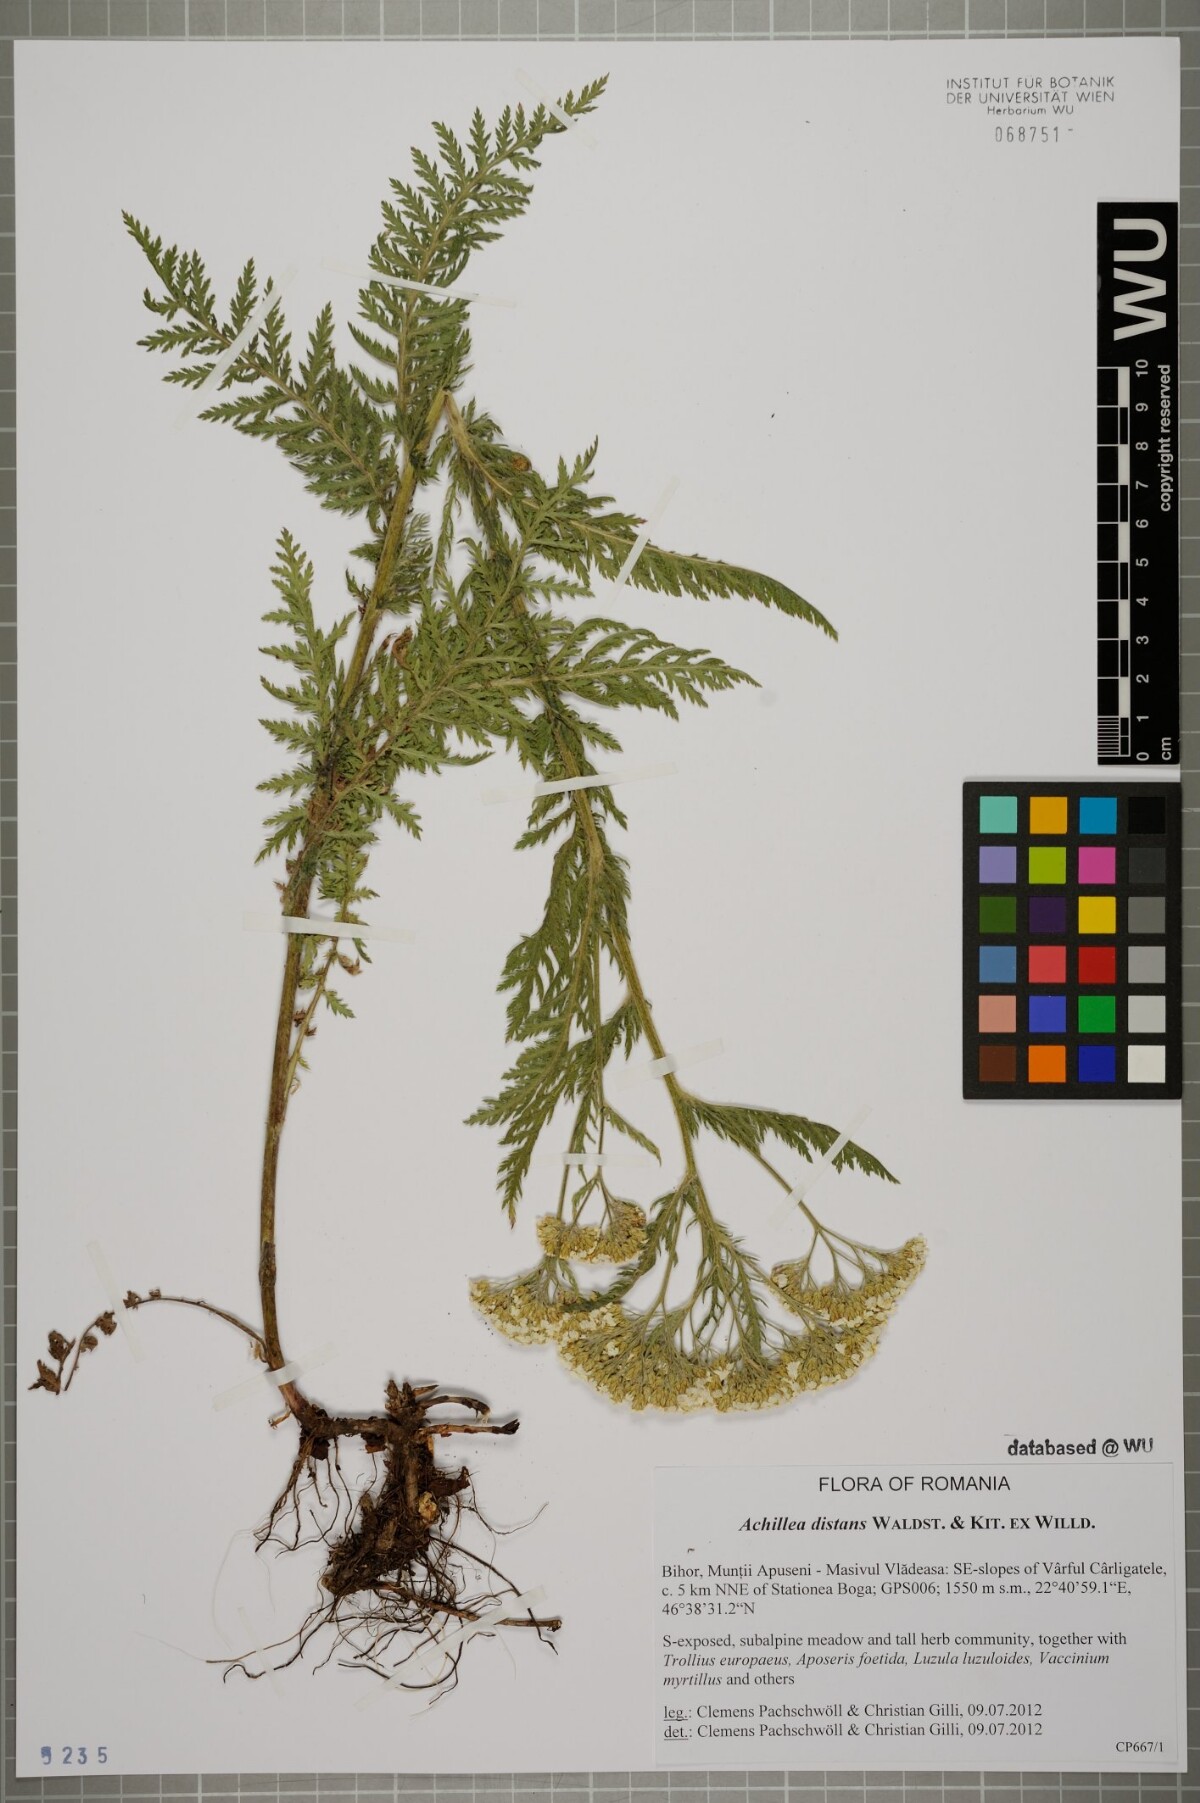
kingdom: Plantae
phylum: Tracheophyta
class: Magnoliopsida
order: Asterales
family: Asteraceae
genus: Achillea
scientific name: Achillea distans
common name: Tall yarrow
